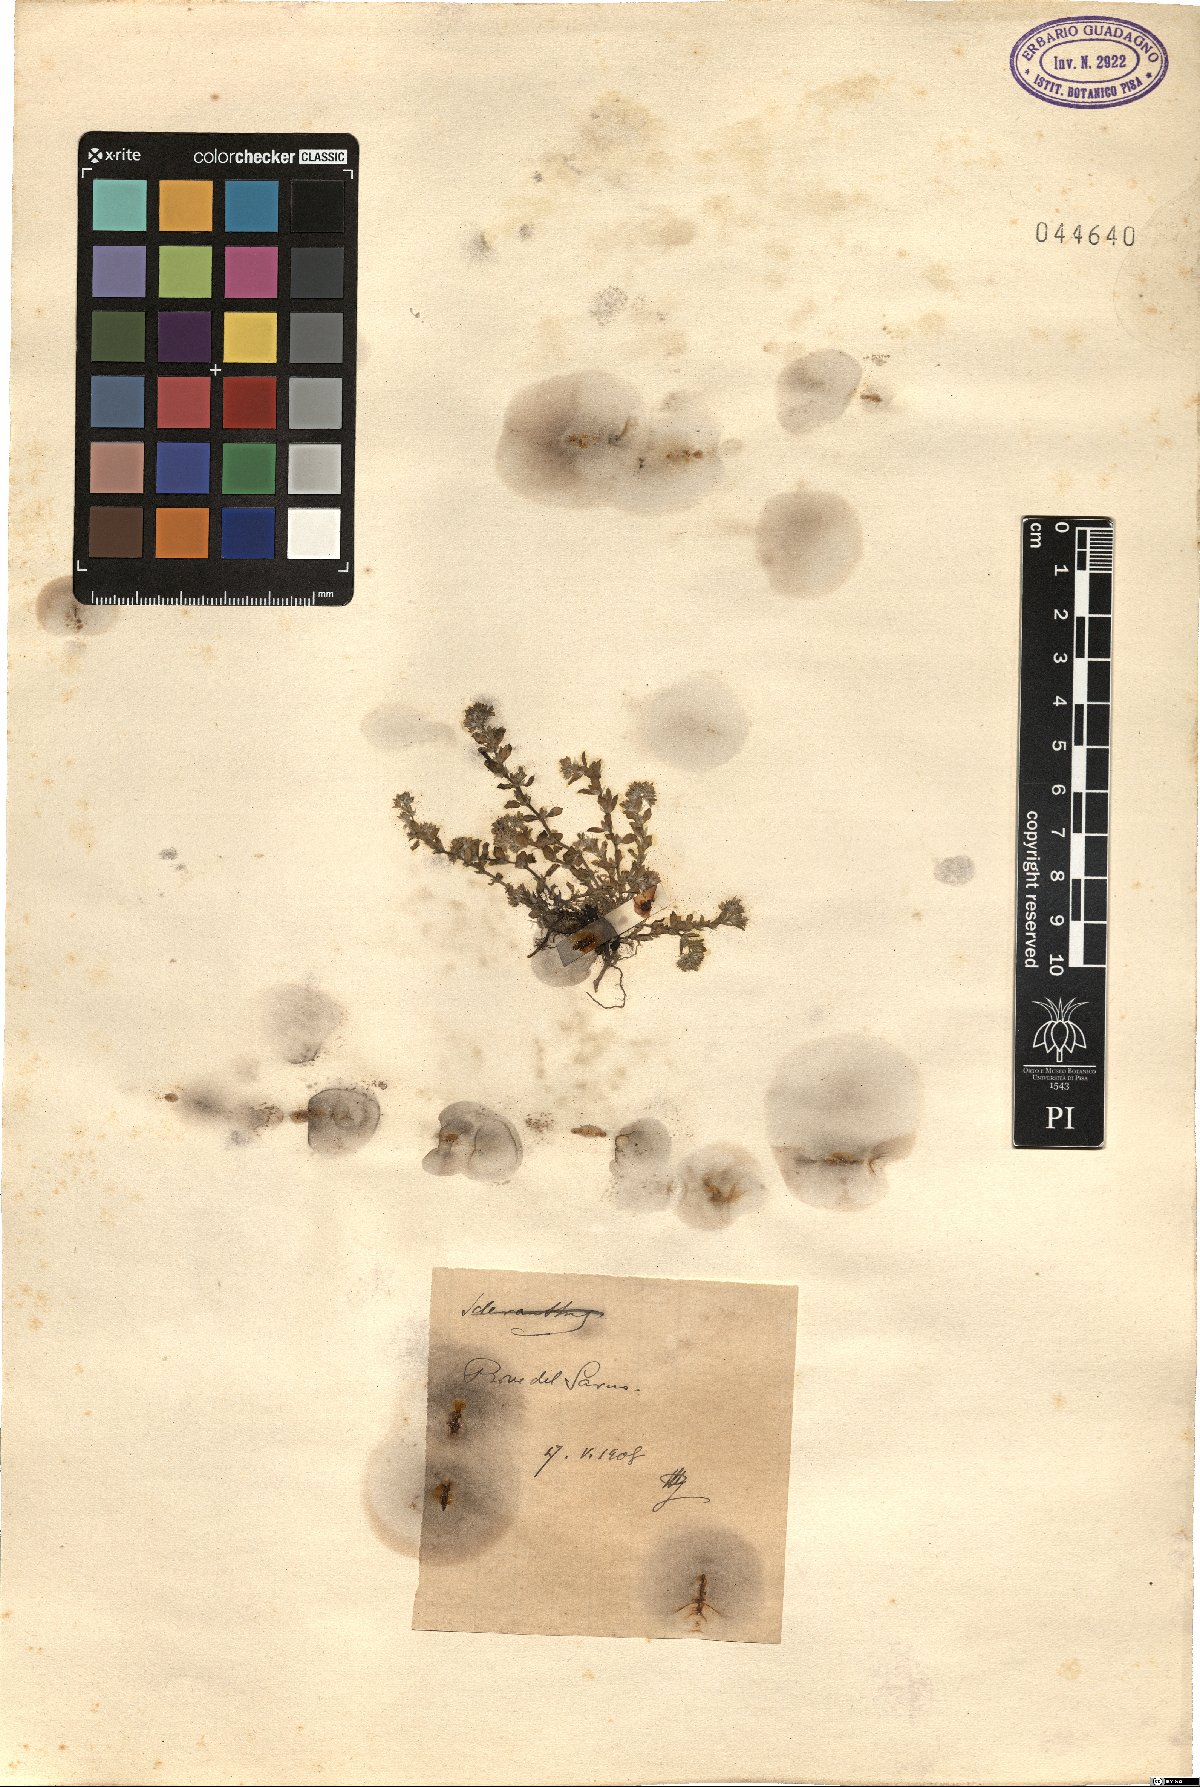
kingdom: Plantae
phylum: Tracheophyta
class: Magnoliopsida
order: Caryophyllales
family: Caryophyllaceae
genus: Polycarpon
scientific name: Polycarpon
